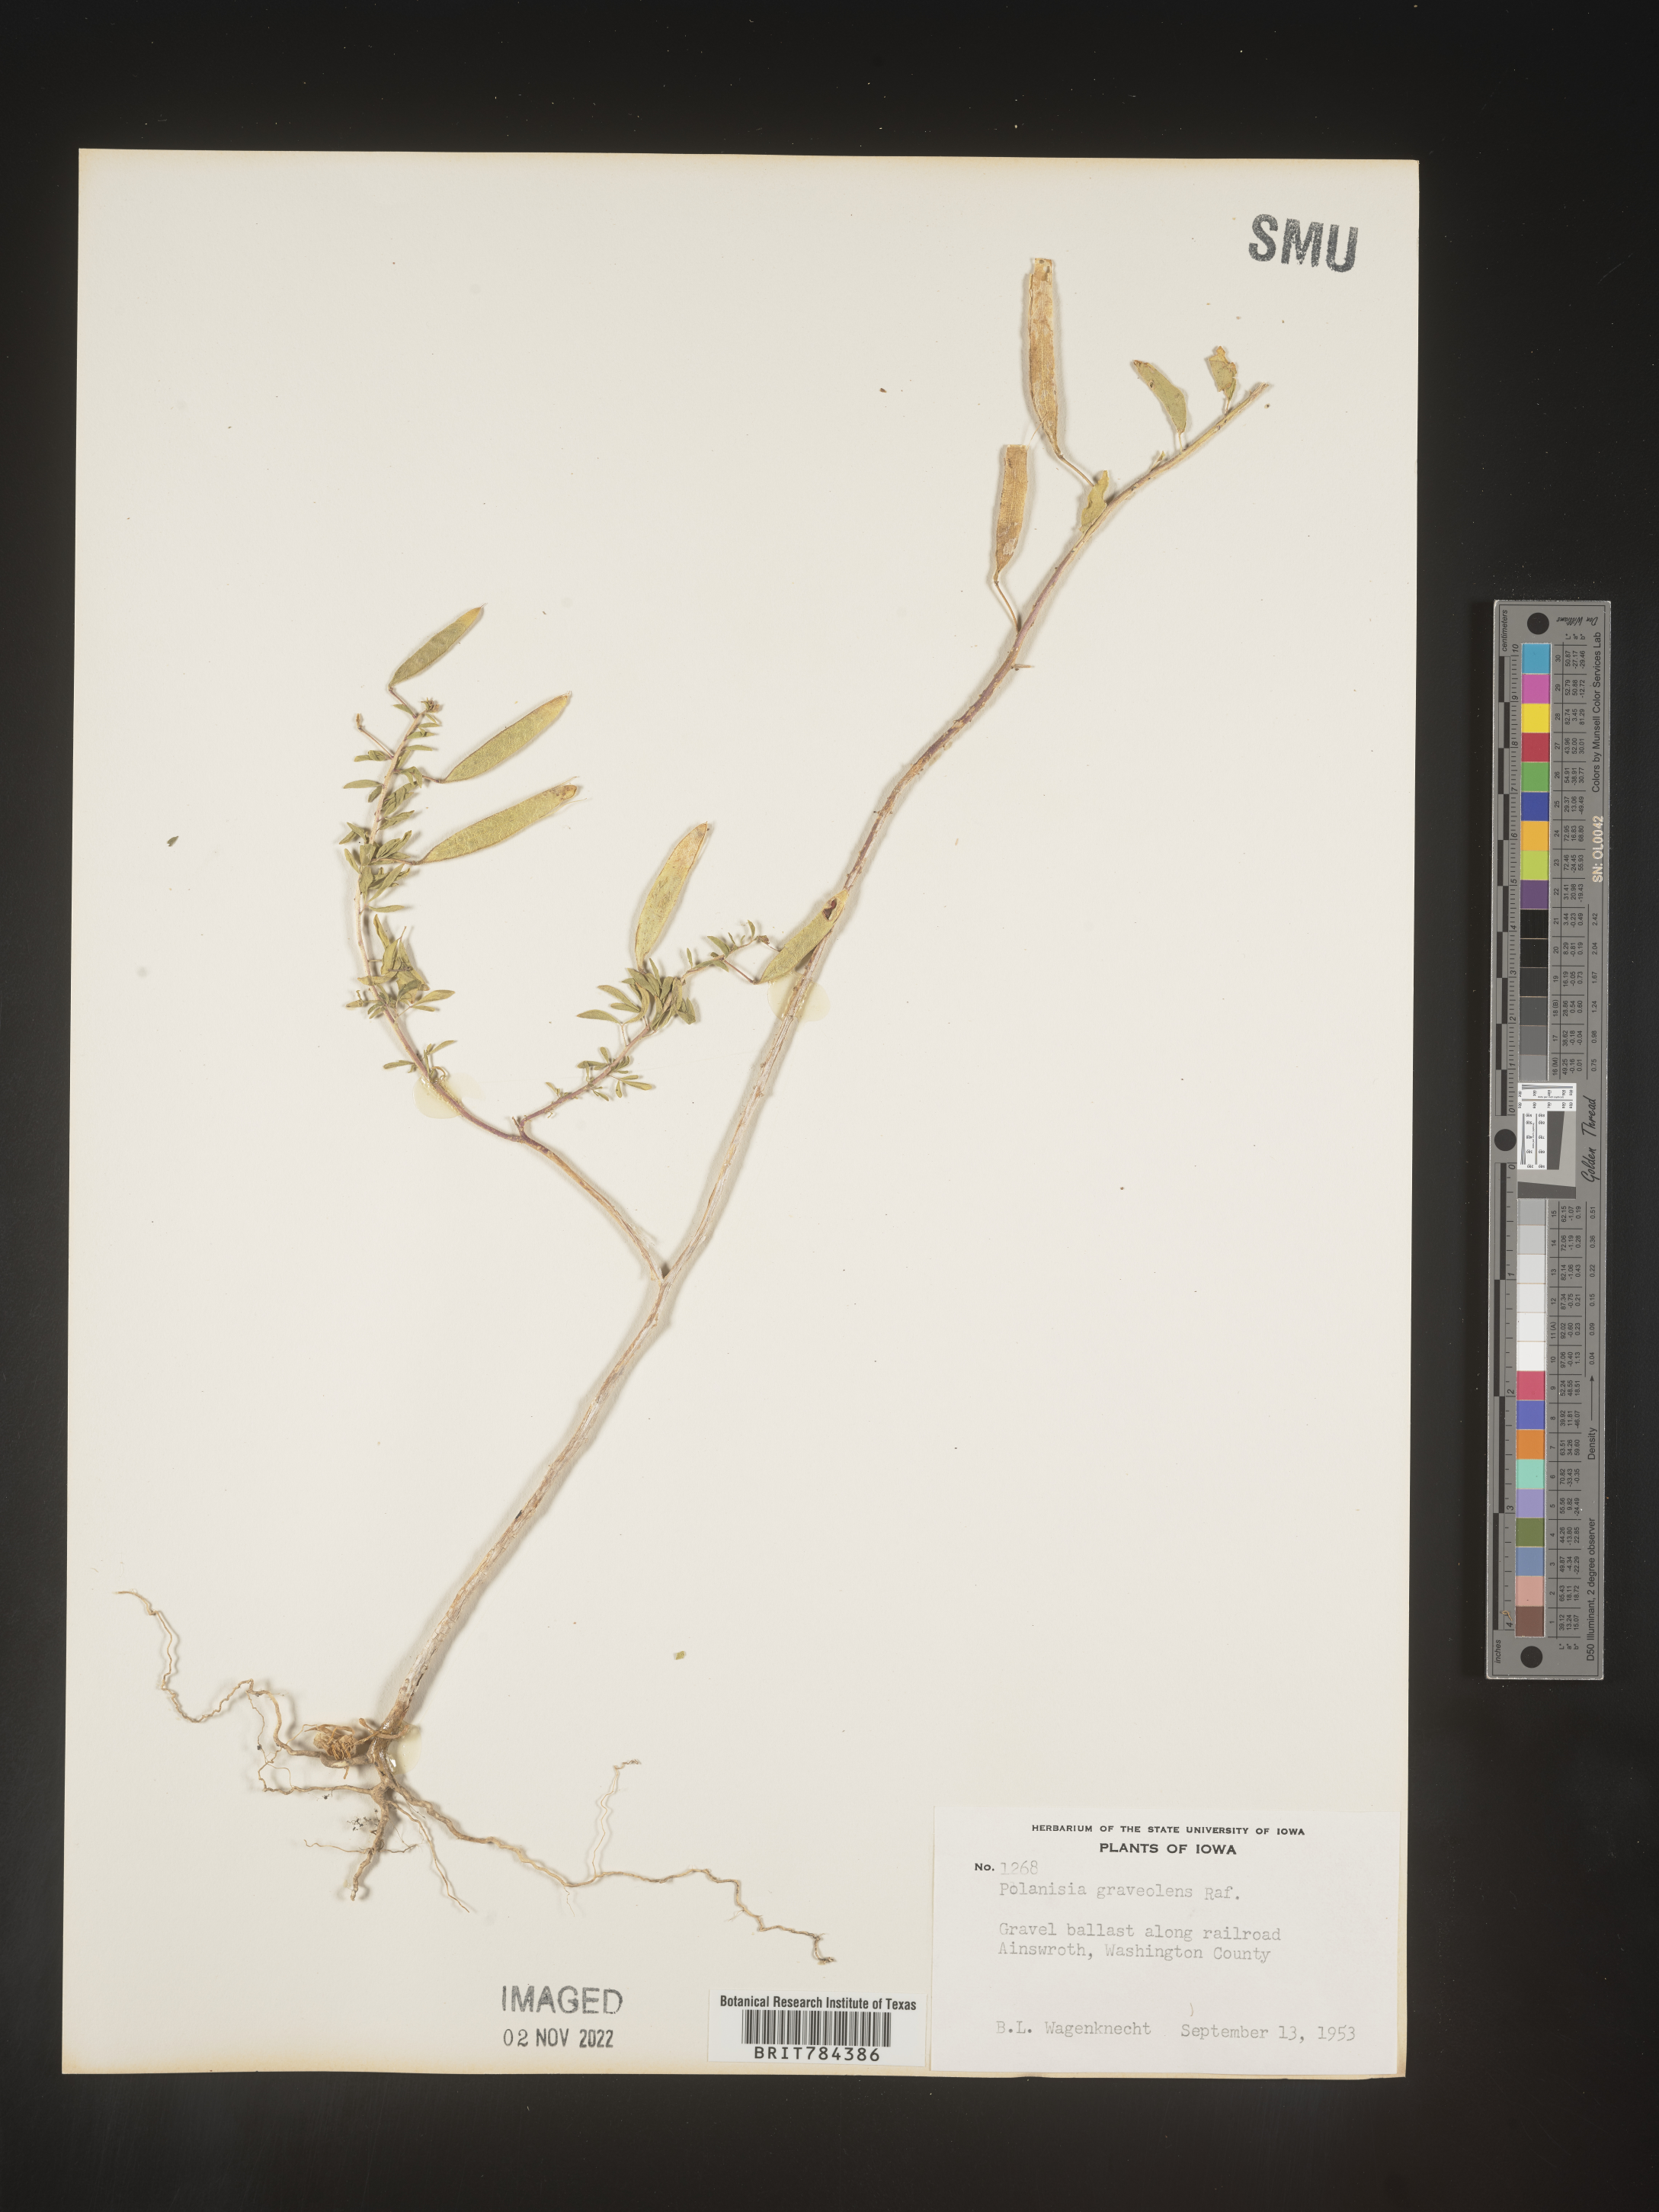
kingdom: Plantae
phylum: Tracheophyta
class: Magnoliopsida
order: Brassicales
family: Cleomaceae
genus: Polanisia
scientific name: Polanisia dodecandra
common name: Clammyweed
